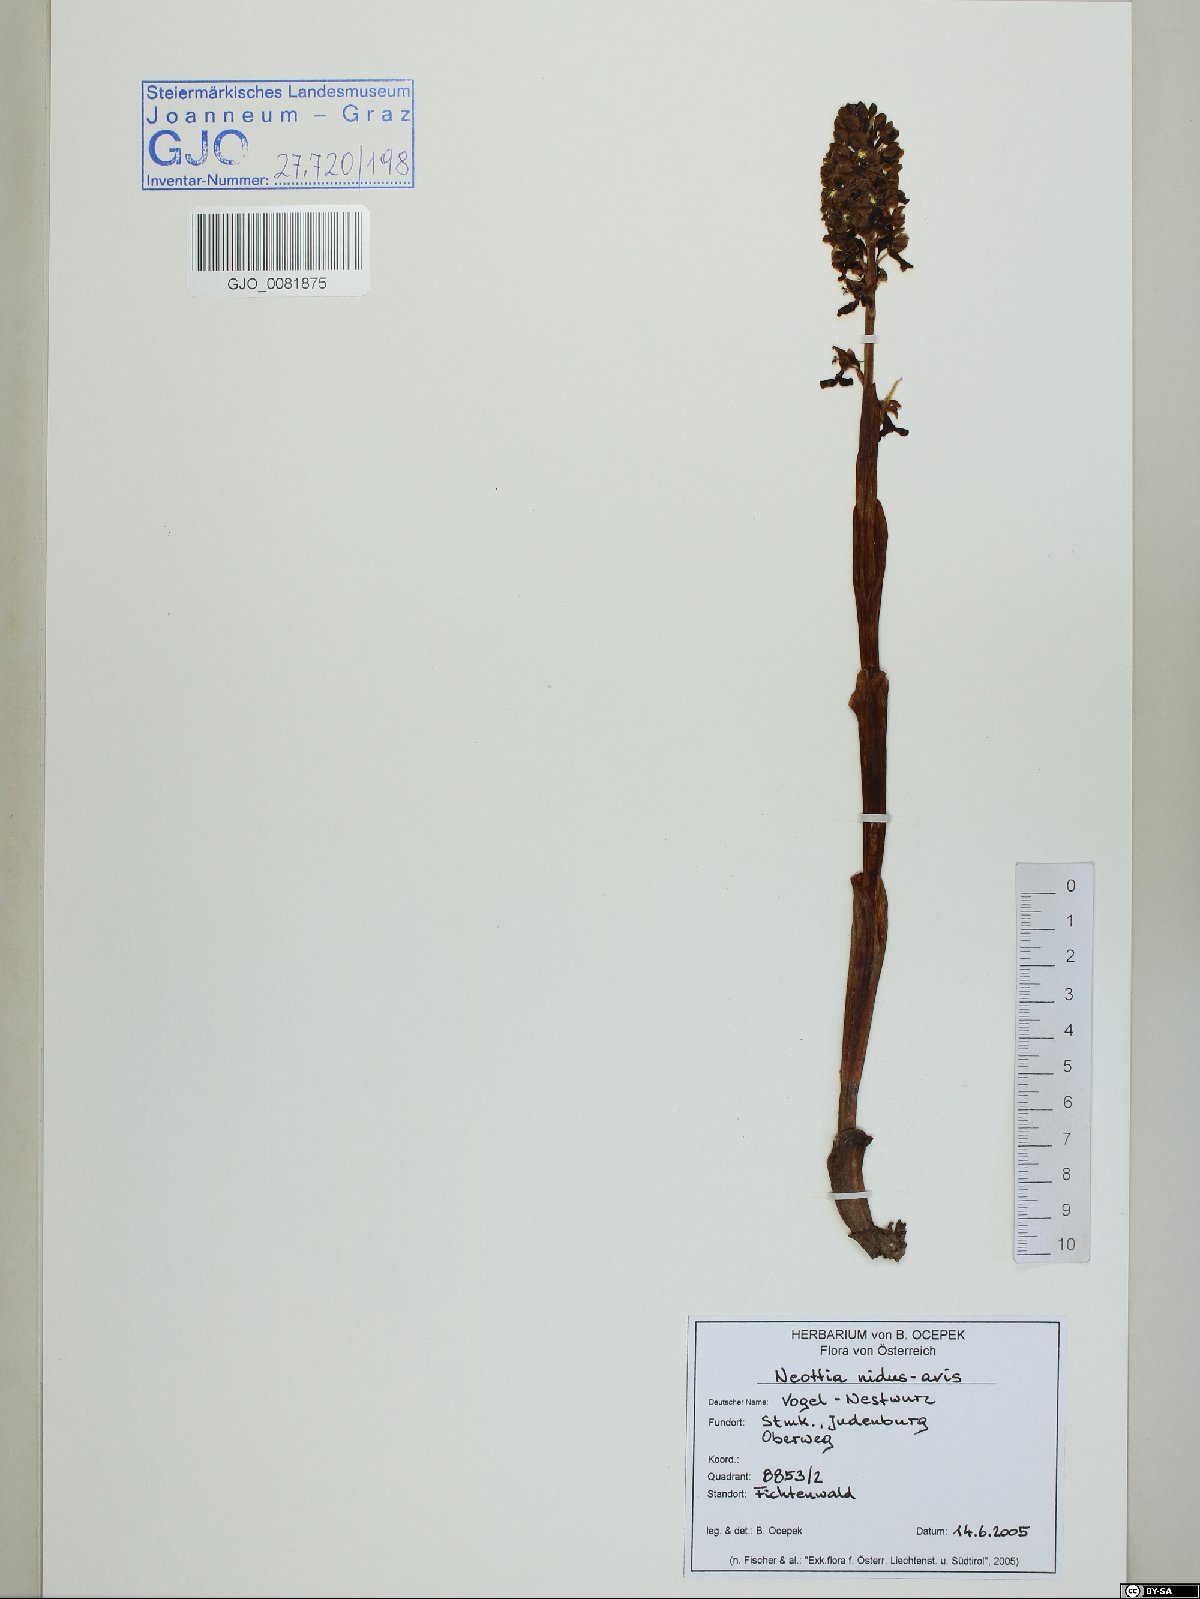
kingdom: Plantae
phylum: Tracheophyta
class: Liliopsida
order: Asparagales
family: Orchidaceae
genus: Neottia
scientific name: Neottia nidus-avis
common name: Bird's-nest orchid
